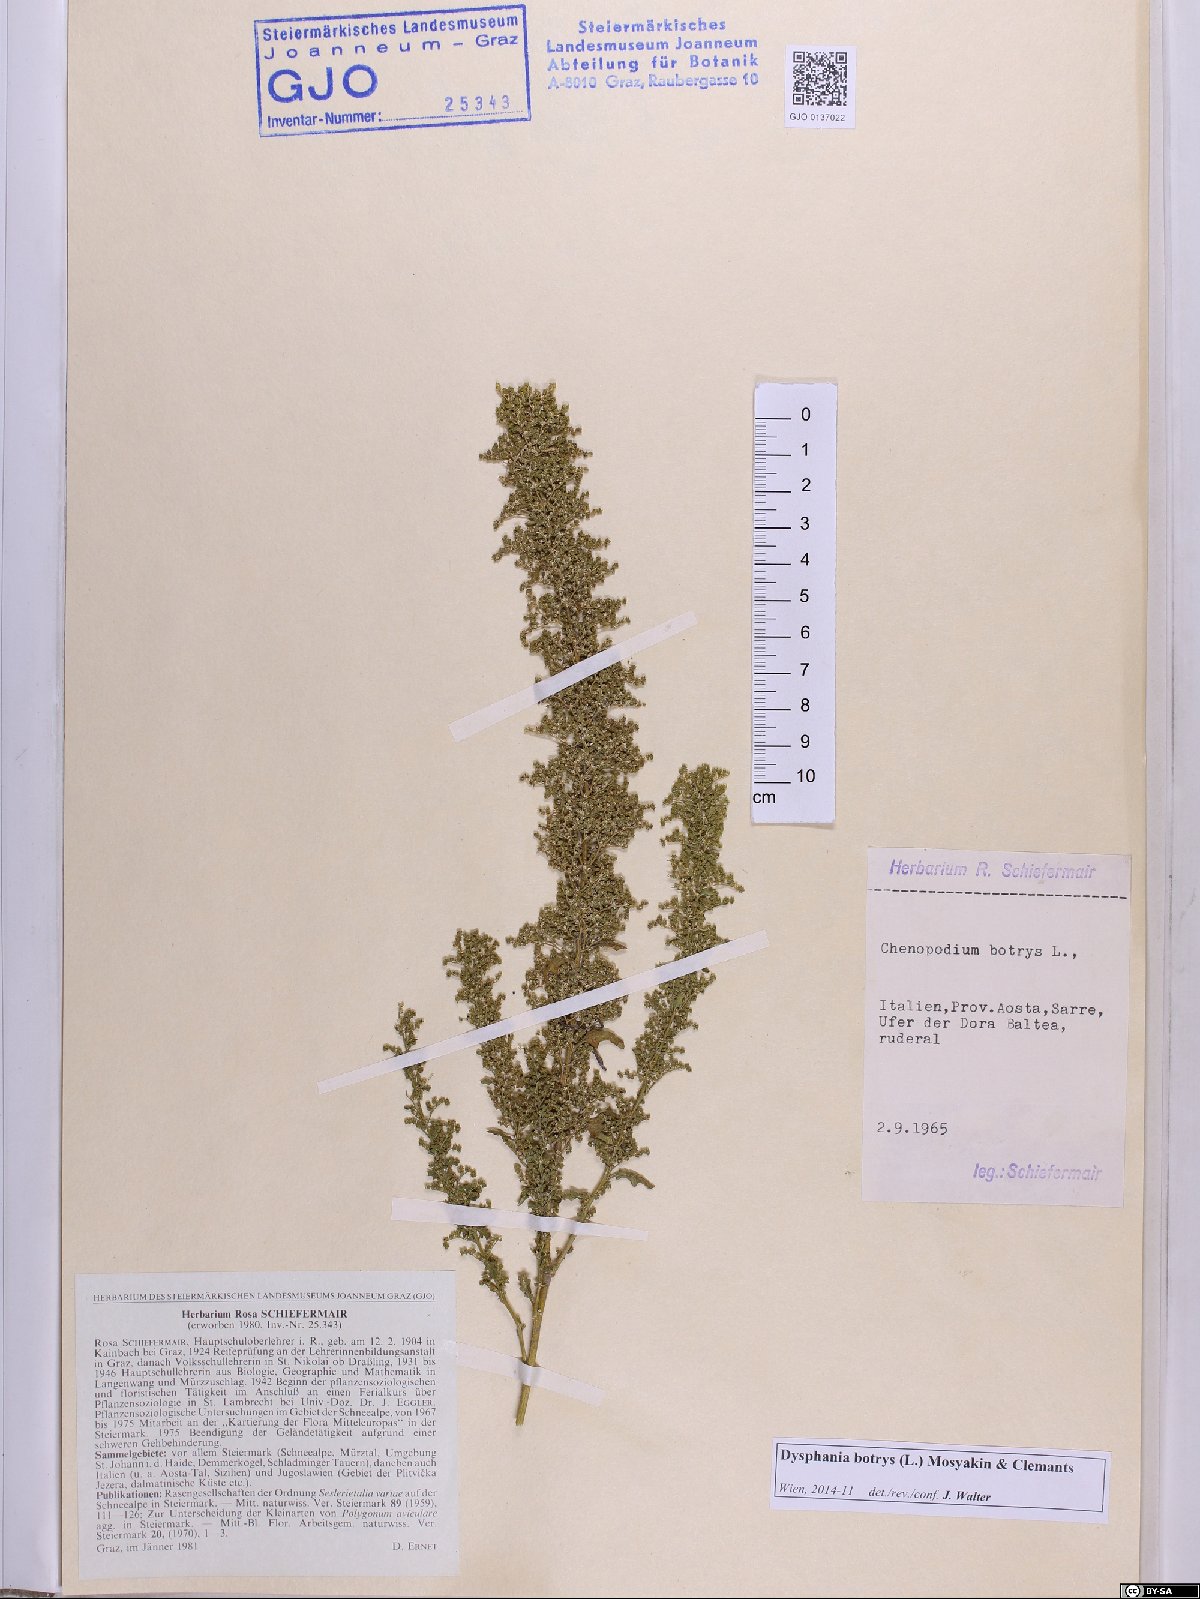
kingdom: Plantae
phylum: Tracheophyta
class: Magnoliopsida
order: Caryophyllales
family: Amaranthaceae
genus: Dysphania
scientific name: Dysphania botrys
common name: Feather-geranium
